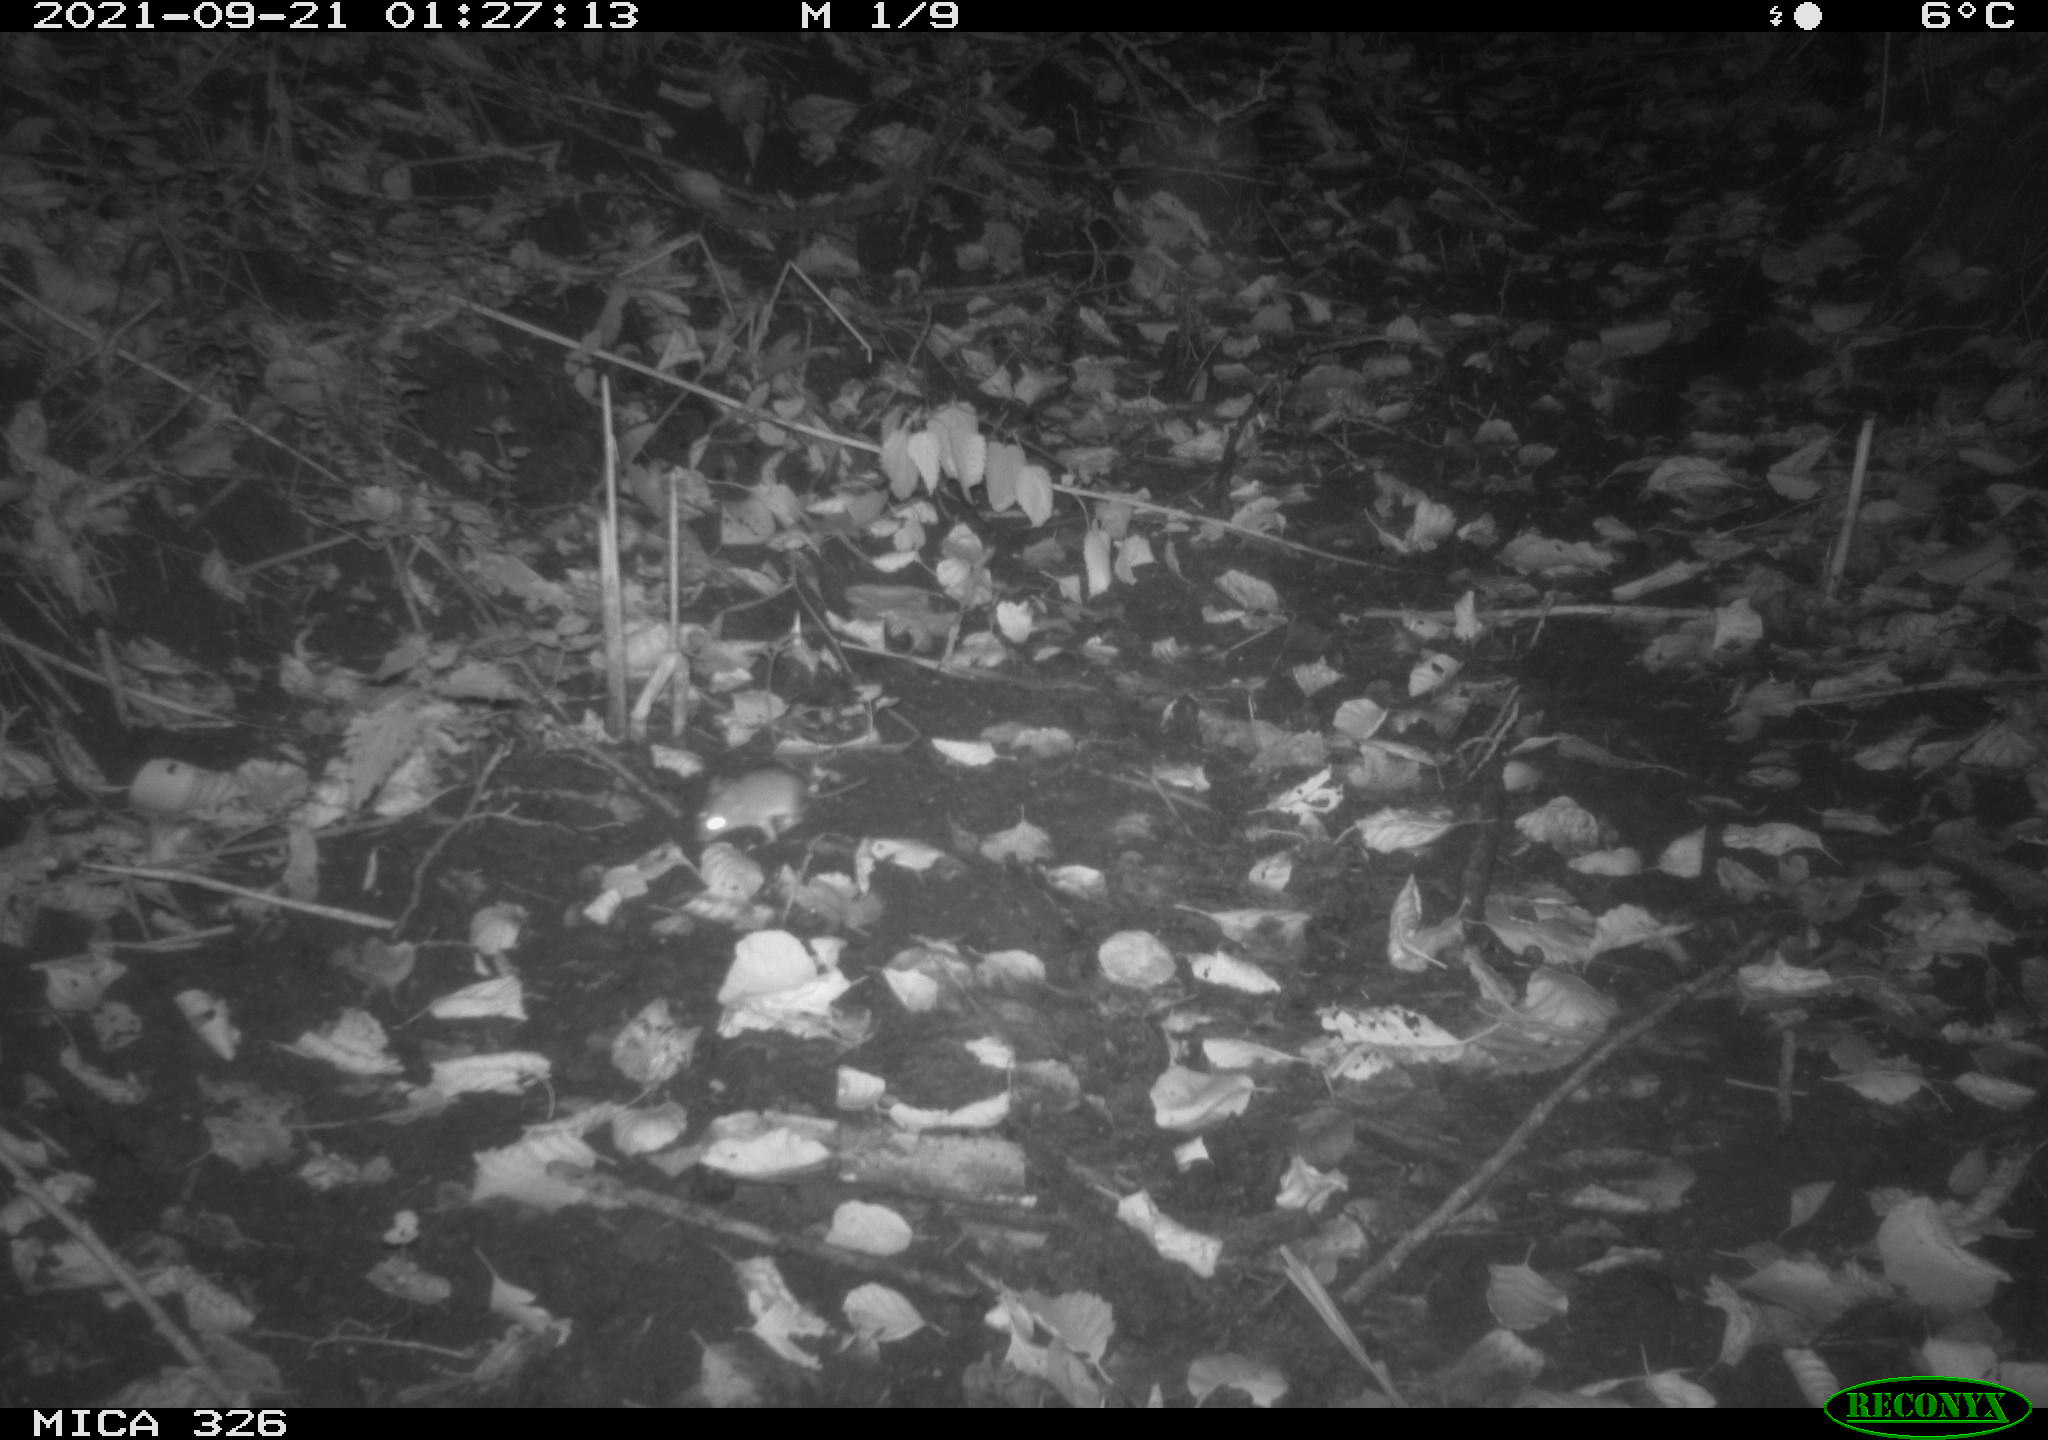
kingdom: Animalia
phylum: Chordata
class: Mammalia
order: Rodentia
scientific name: Rodentia
